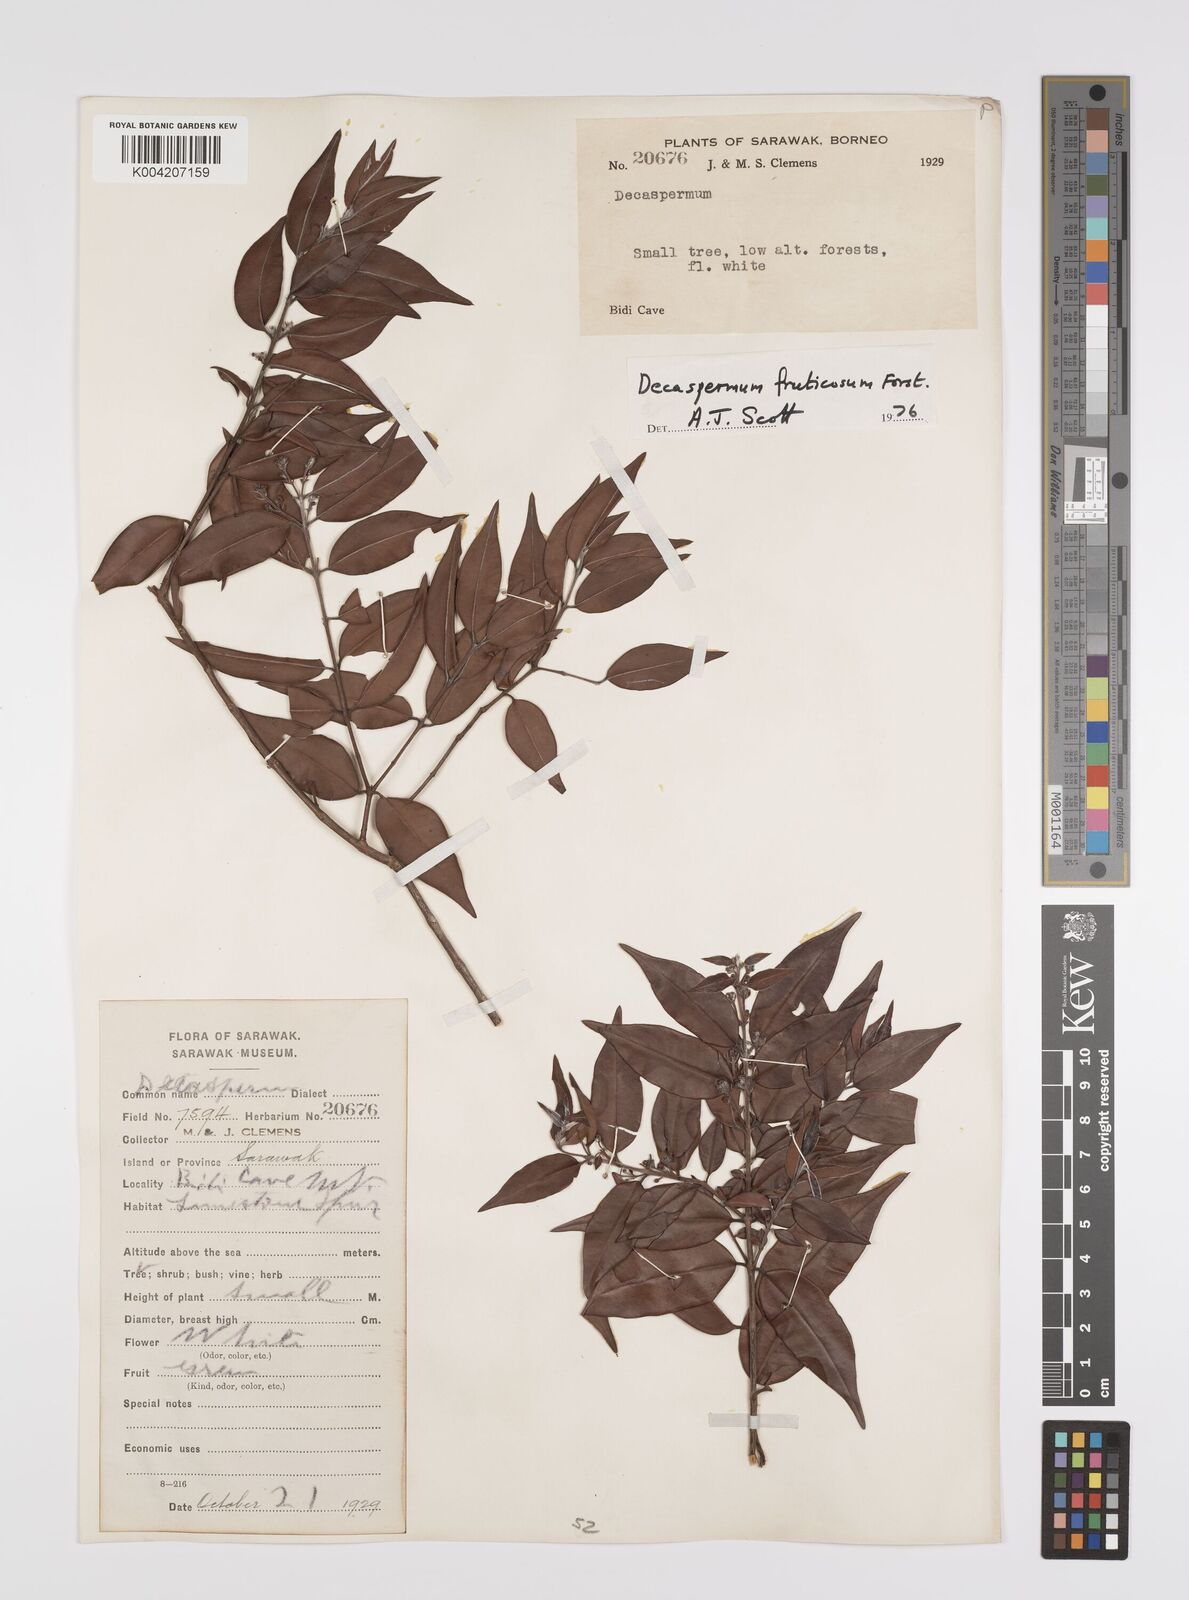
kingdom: Plantae
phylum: Tracheophyta
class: Magnoliopsida
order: Myrtales
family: Myrtaceae
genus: Decaspermum
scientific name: Decaspermum fruticosum
